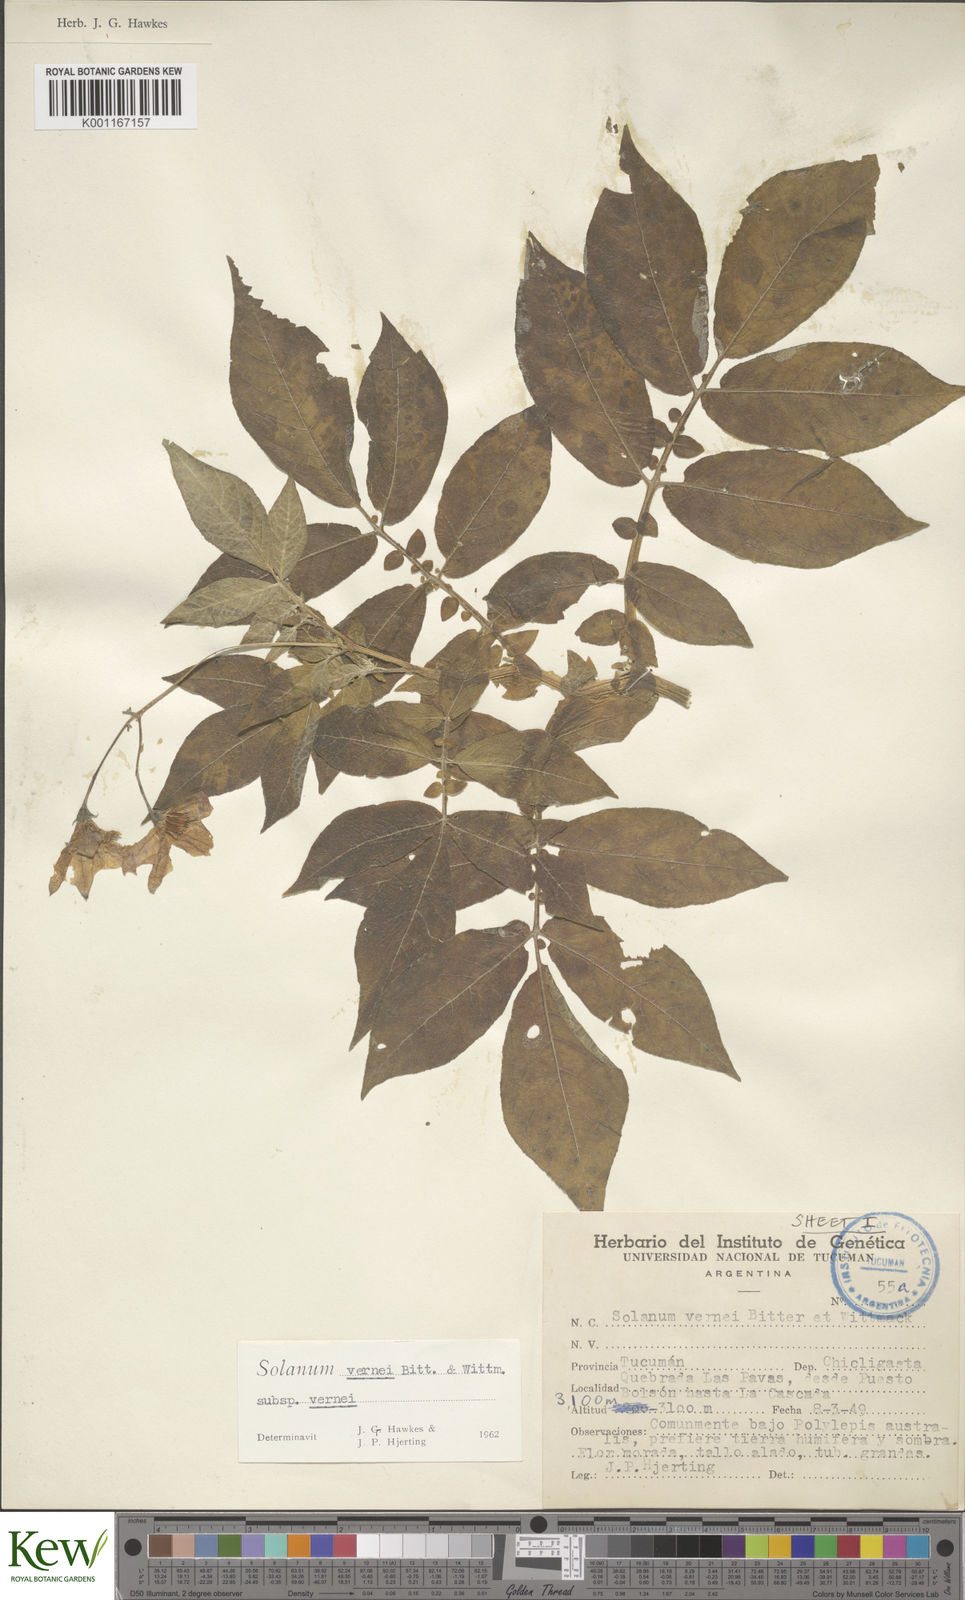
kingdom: Plantae
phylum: Tracheophyta
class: Magnoliopsida
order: Solanales
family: Solanaceae
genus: Solanum
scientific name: Solanum vernei
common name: Purple potato
